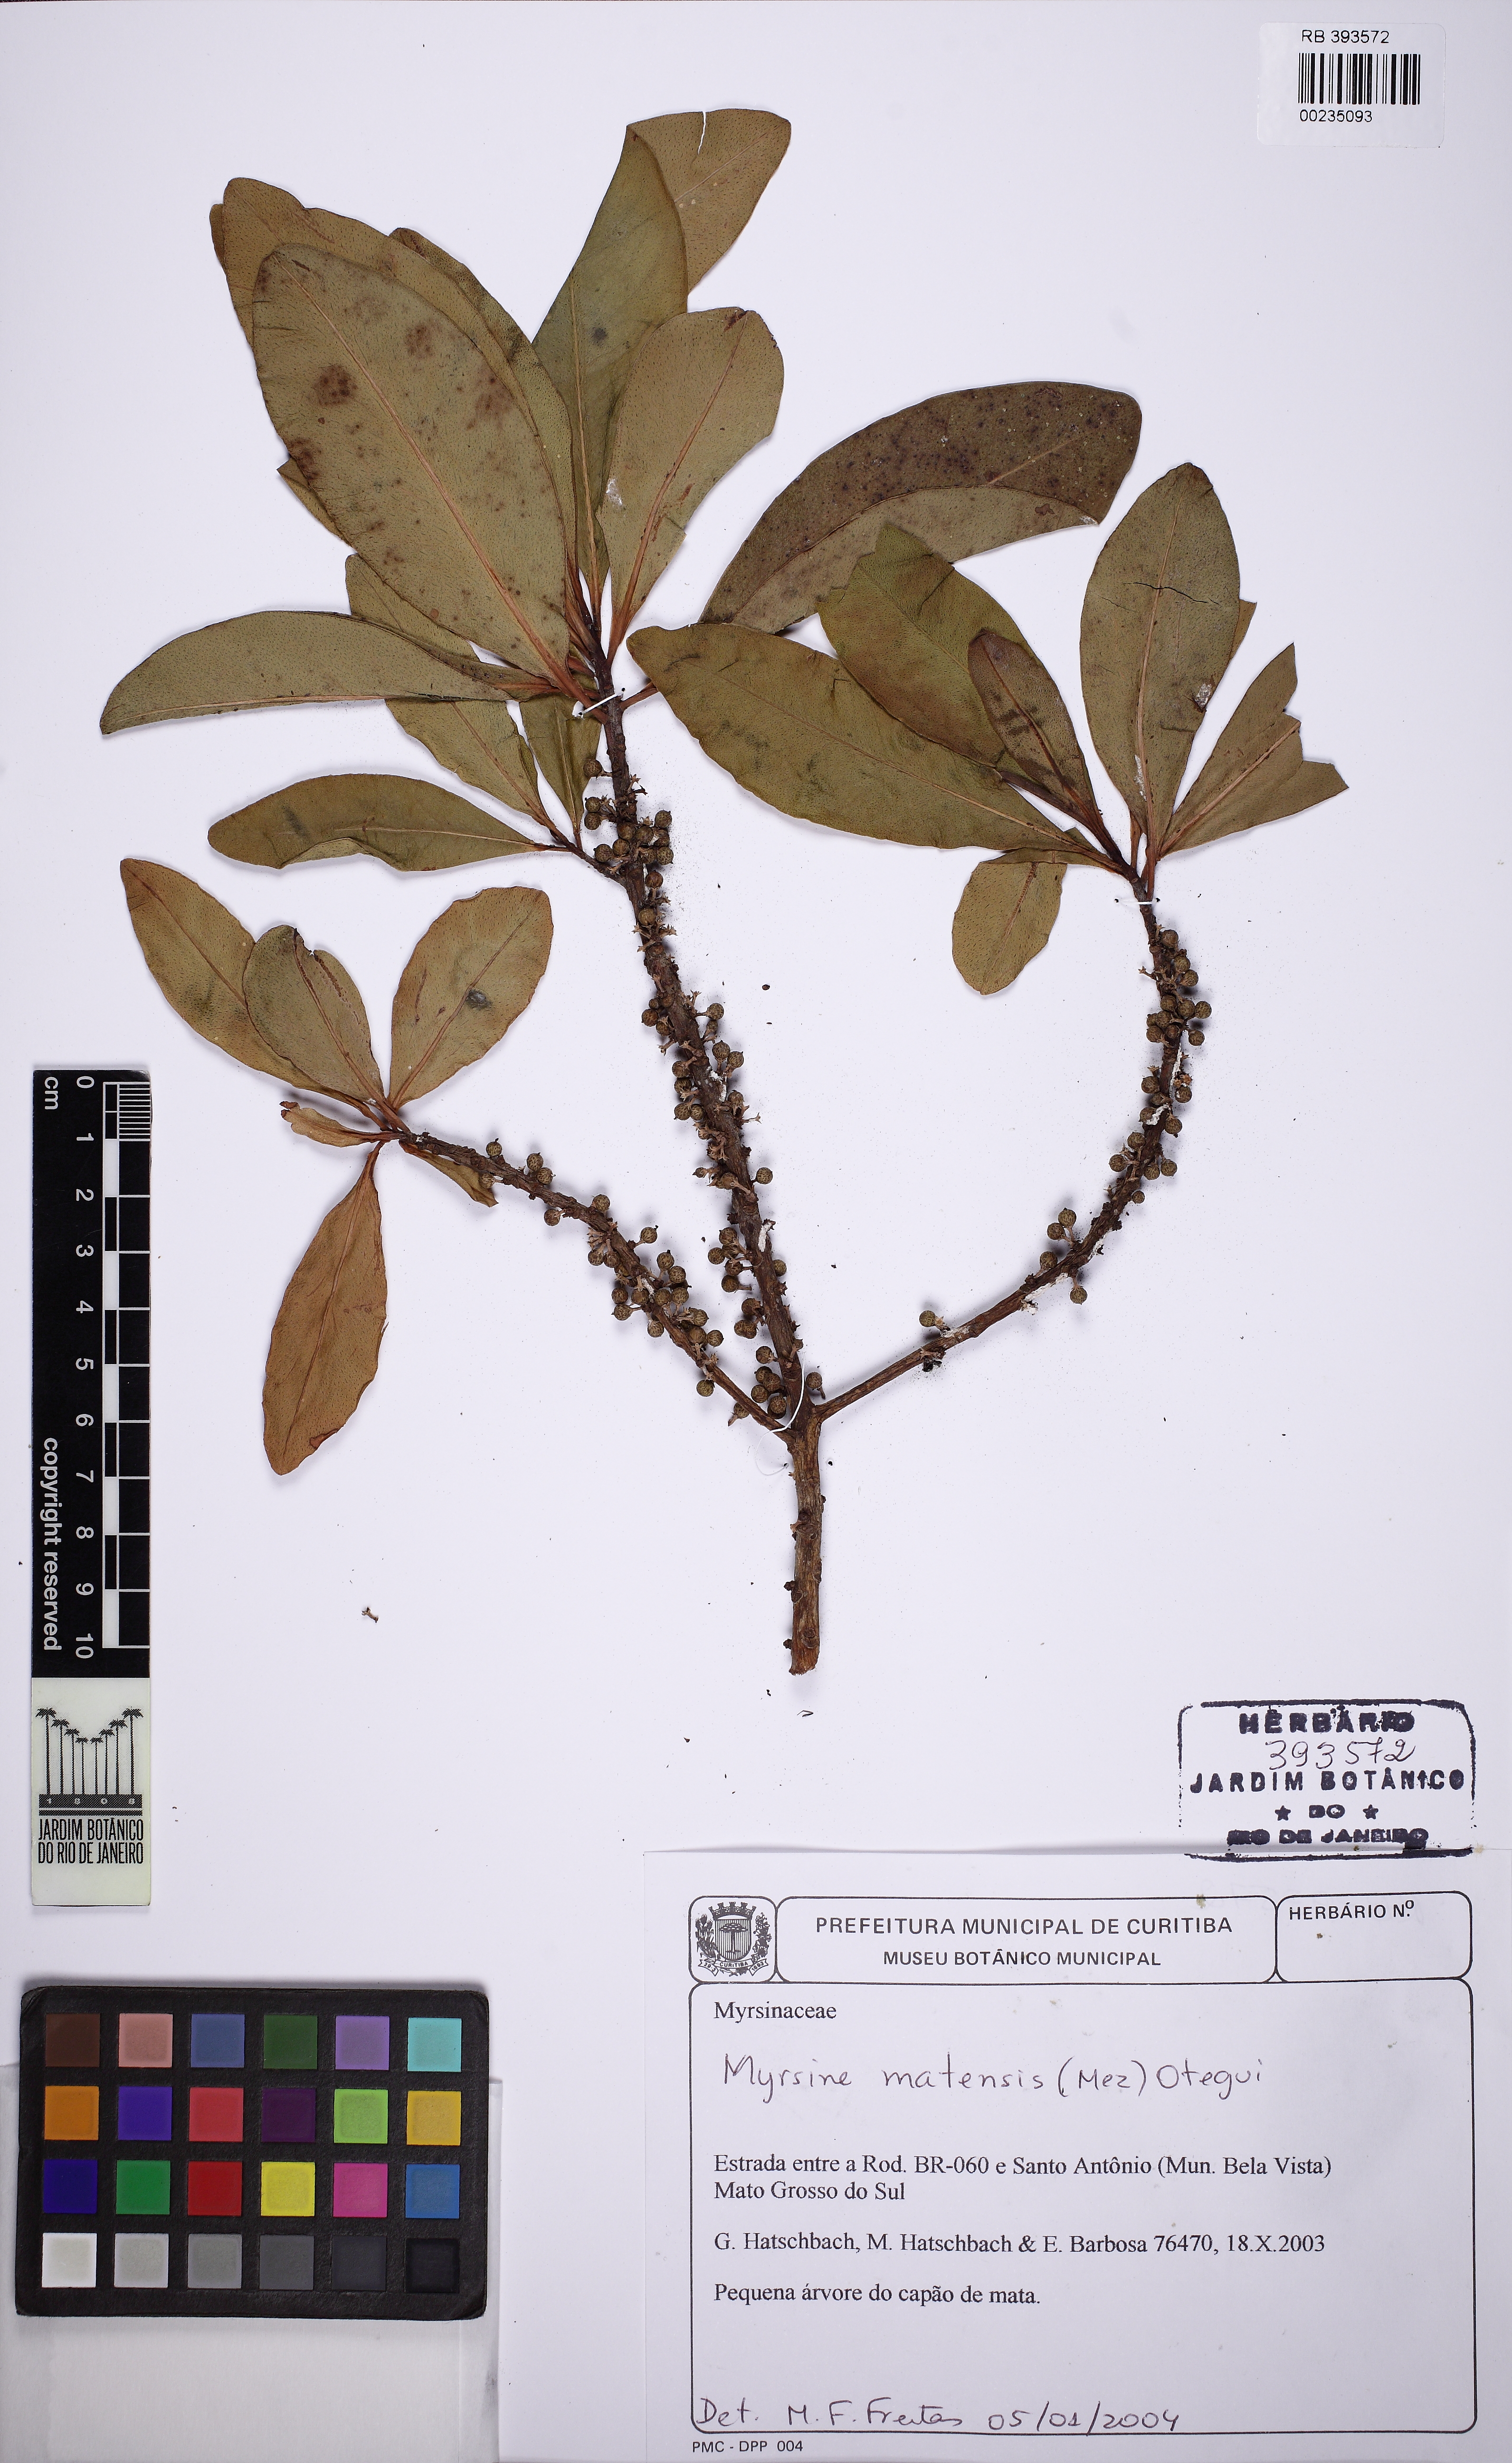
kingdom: Plantae
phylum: Tracheophyta
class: Magnoliopsida
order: Ericales
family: Primulaceae
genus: Myrsine
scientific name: Myrsine matensis
